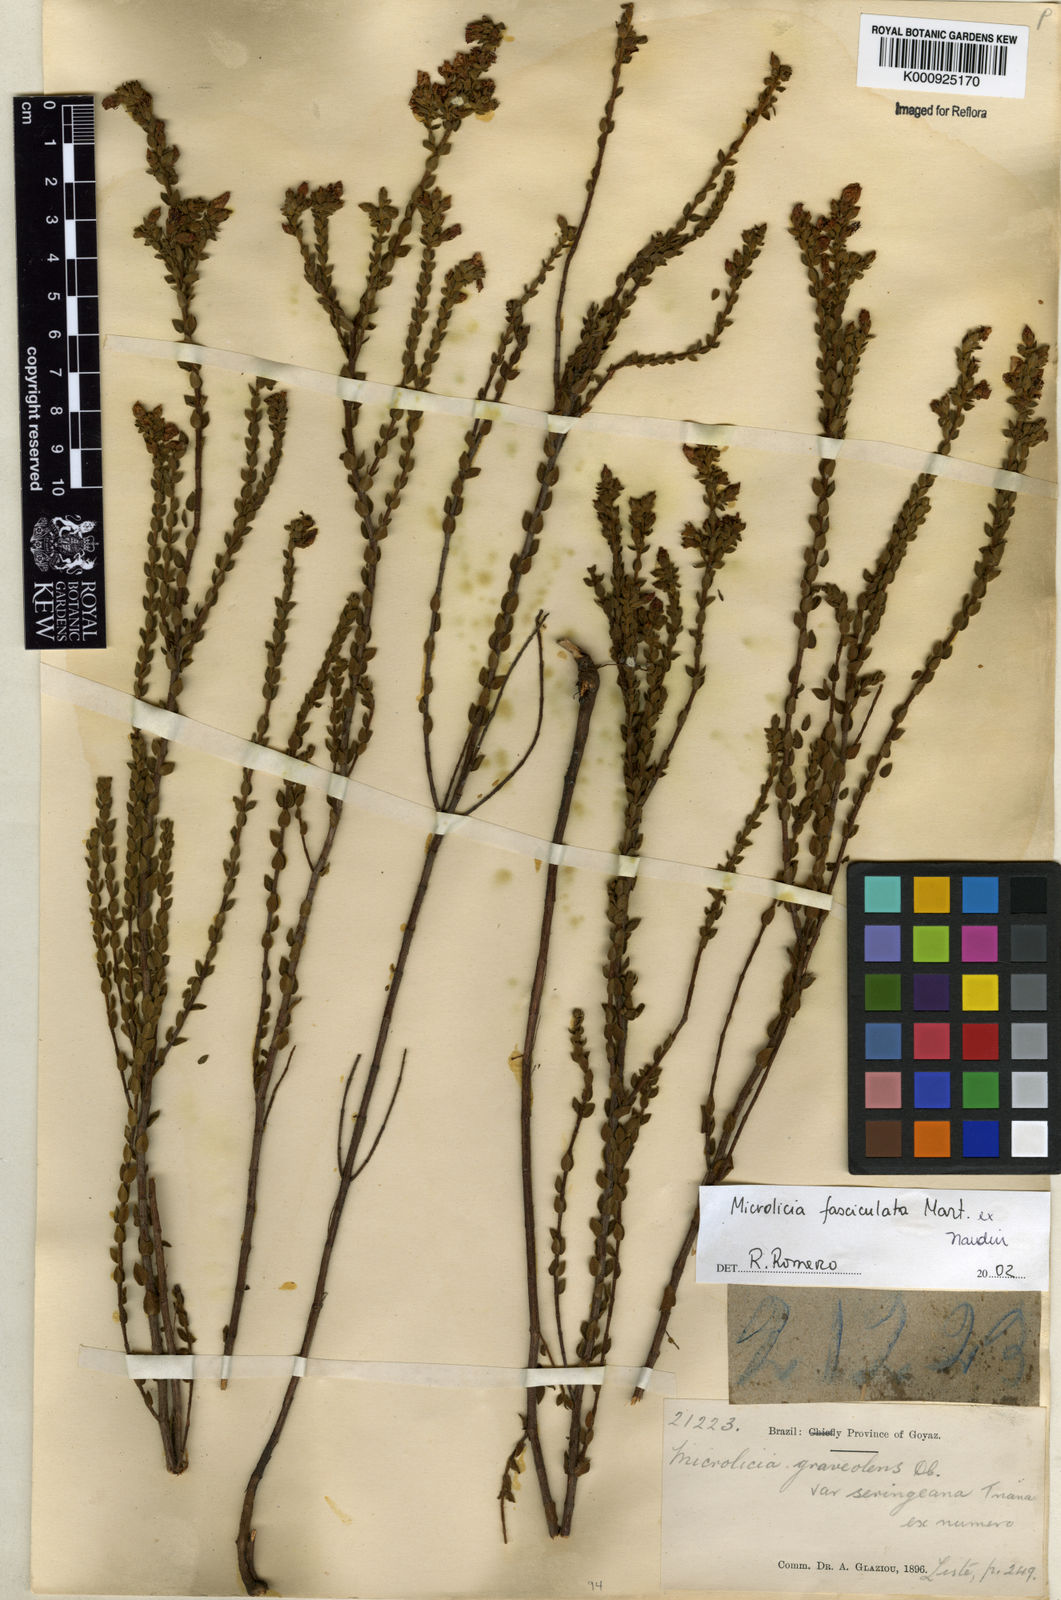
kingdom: Plantae
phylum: Tracheophyta
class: Magnoliopsida
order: Myrtales
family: Melastomataceae
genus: Microlicia
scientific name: Microlicia fasciculata
